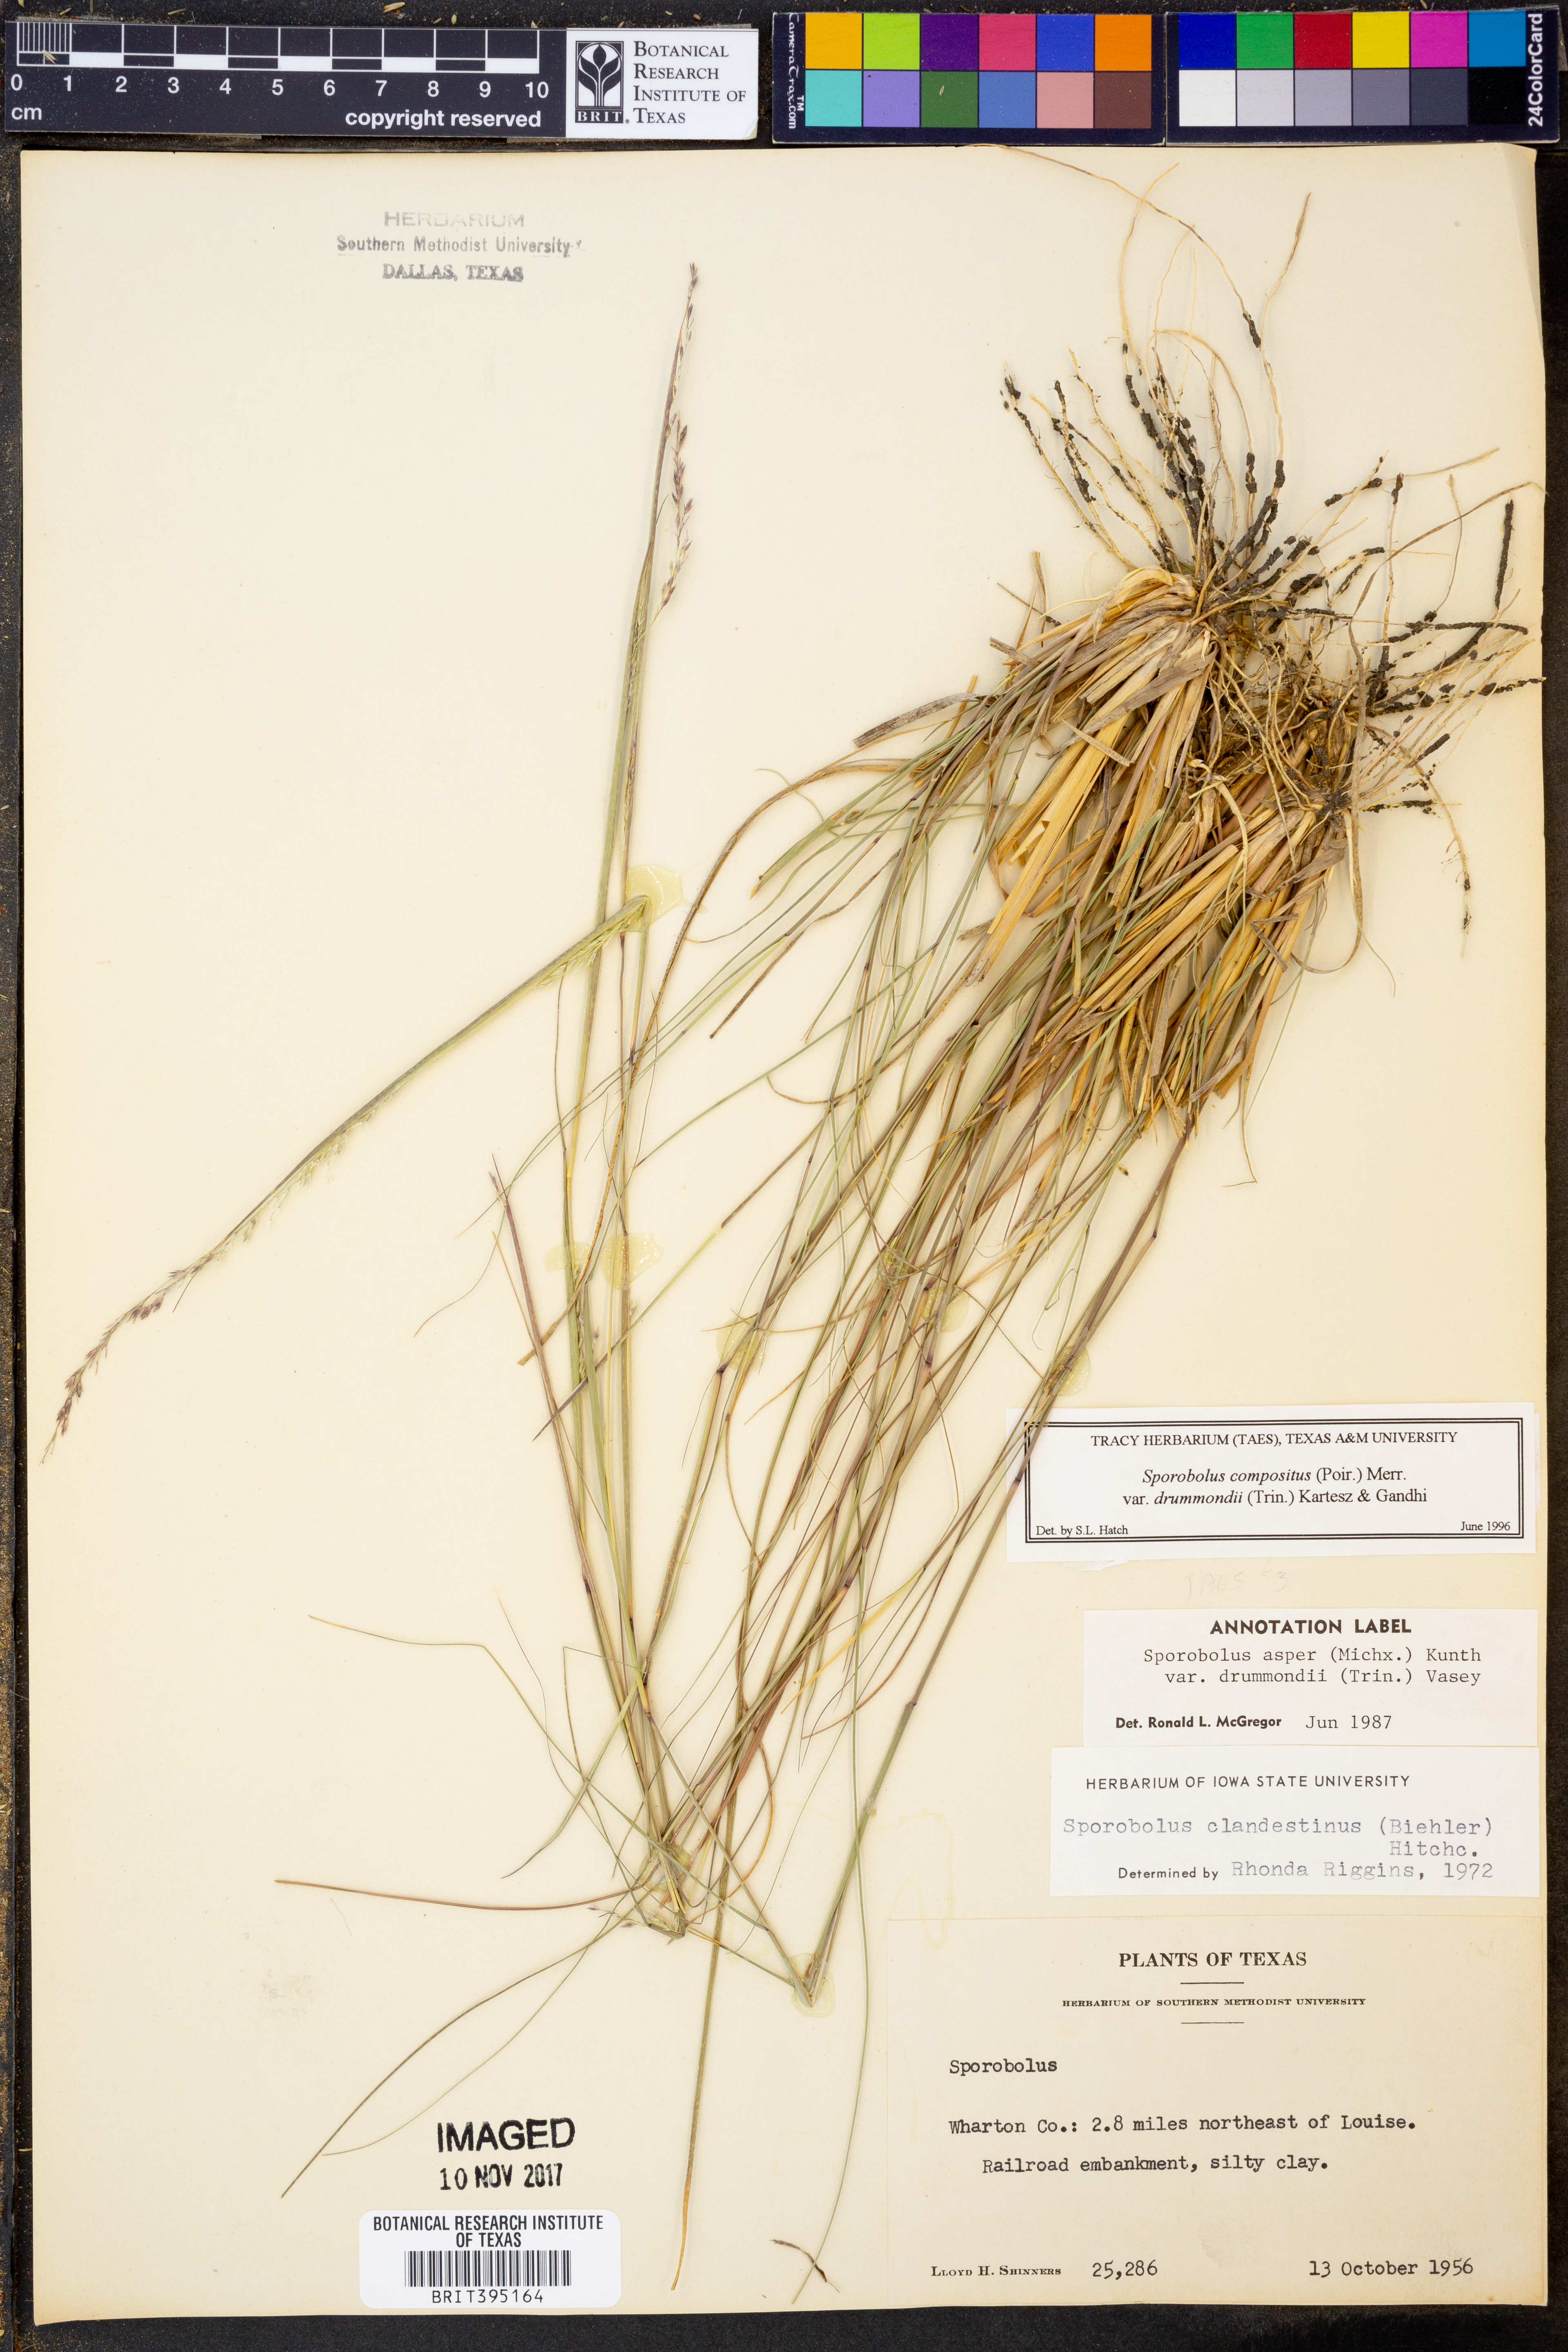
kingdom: Plantae
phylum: Tracheophyta
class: Liliopsida
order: Poales
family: Poaceae
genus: Sporobolus
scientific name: Sporobolus compositus
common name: Rough dropseed
